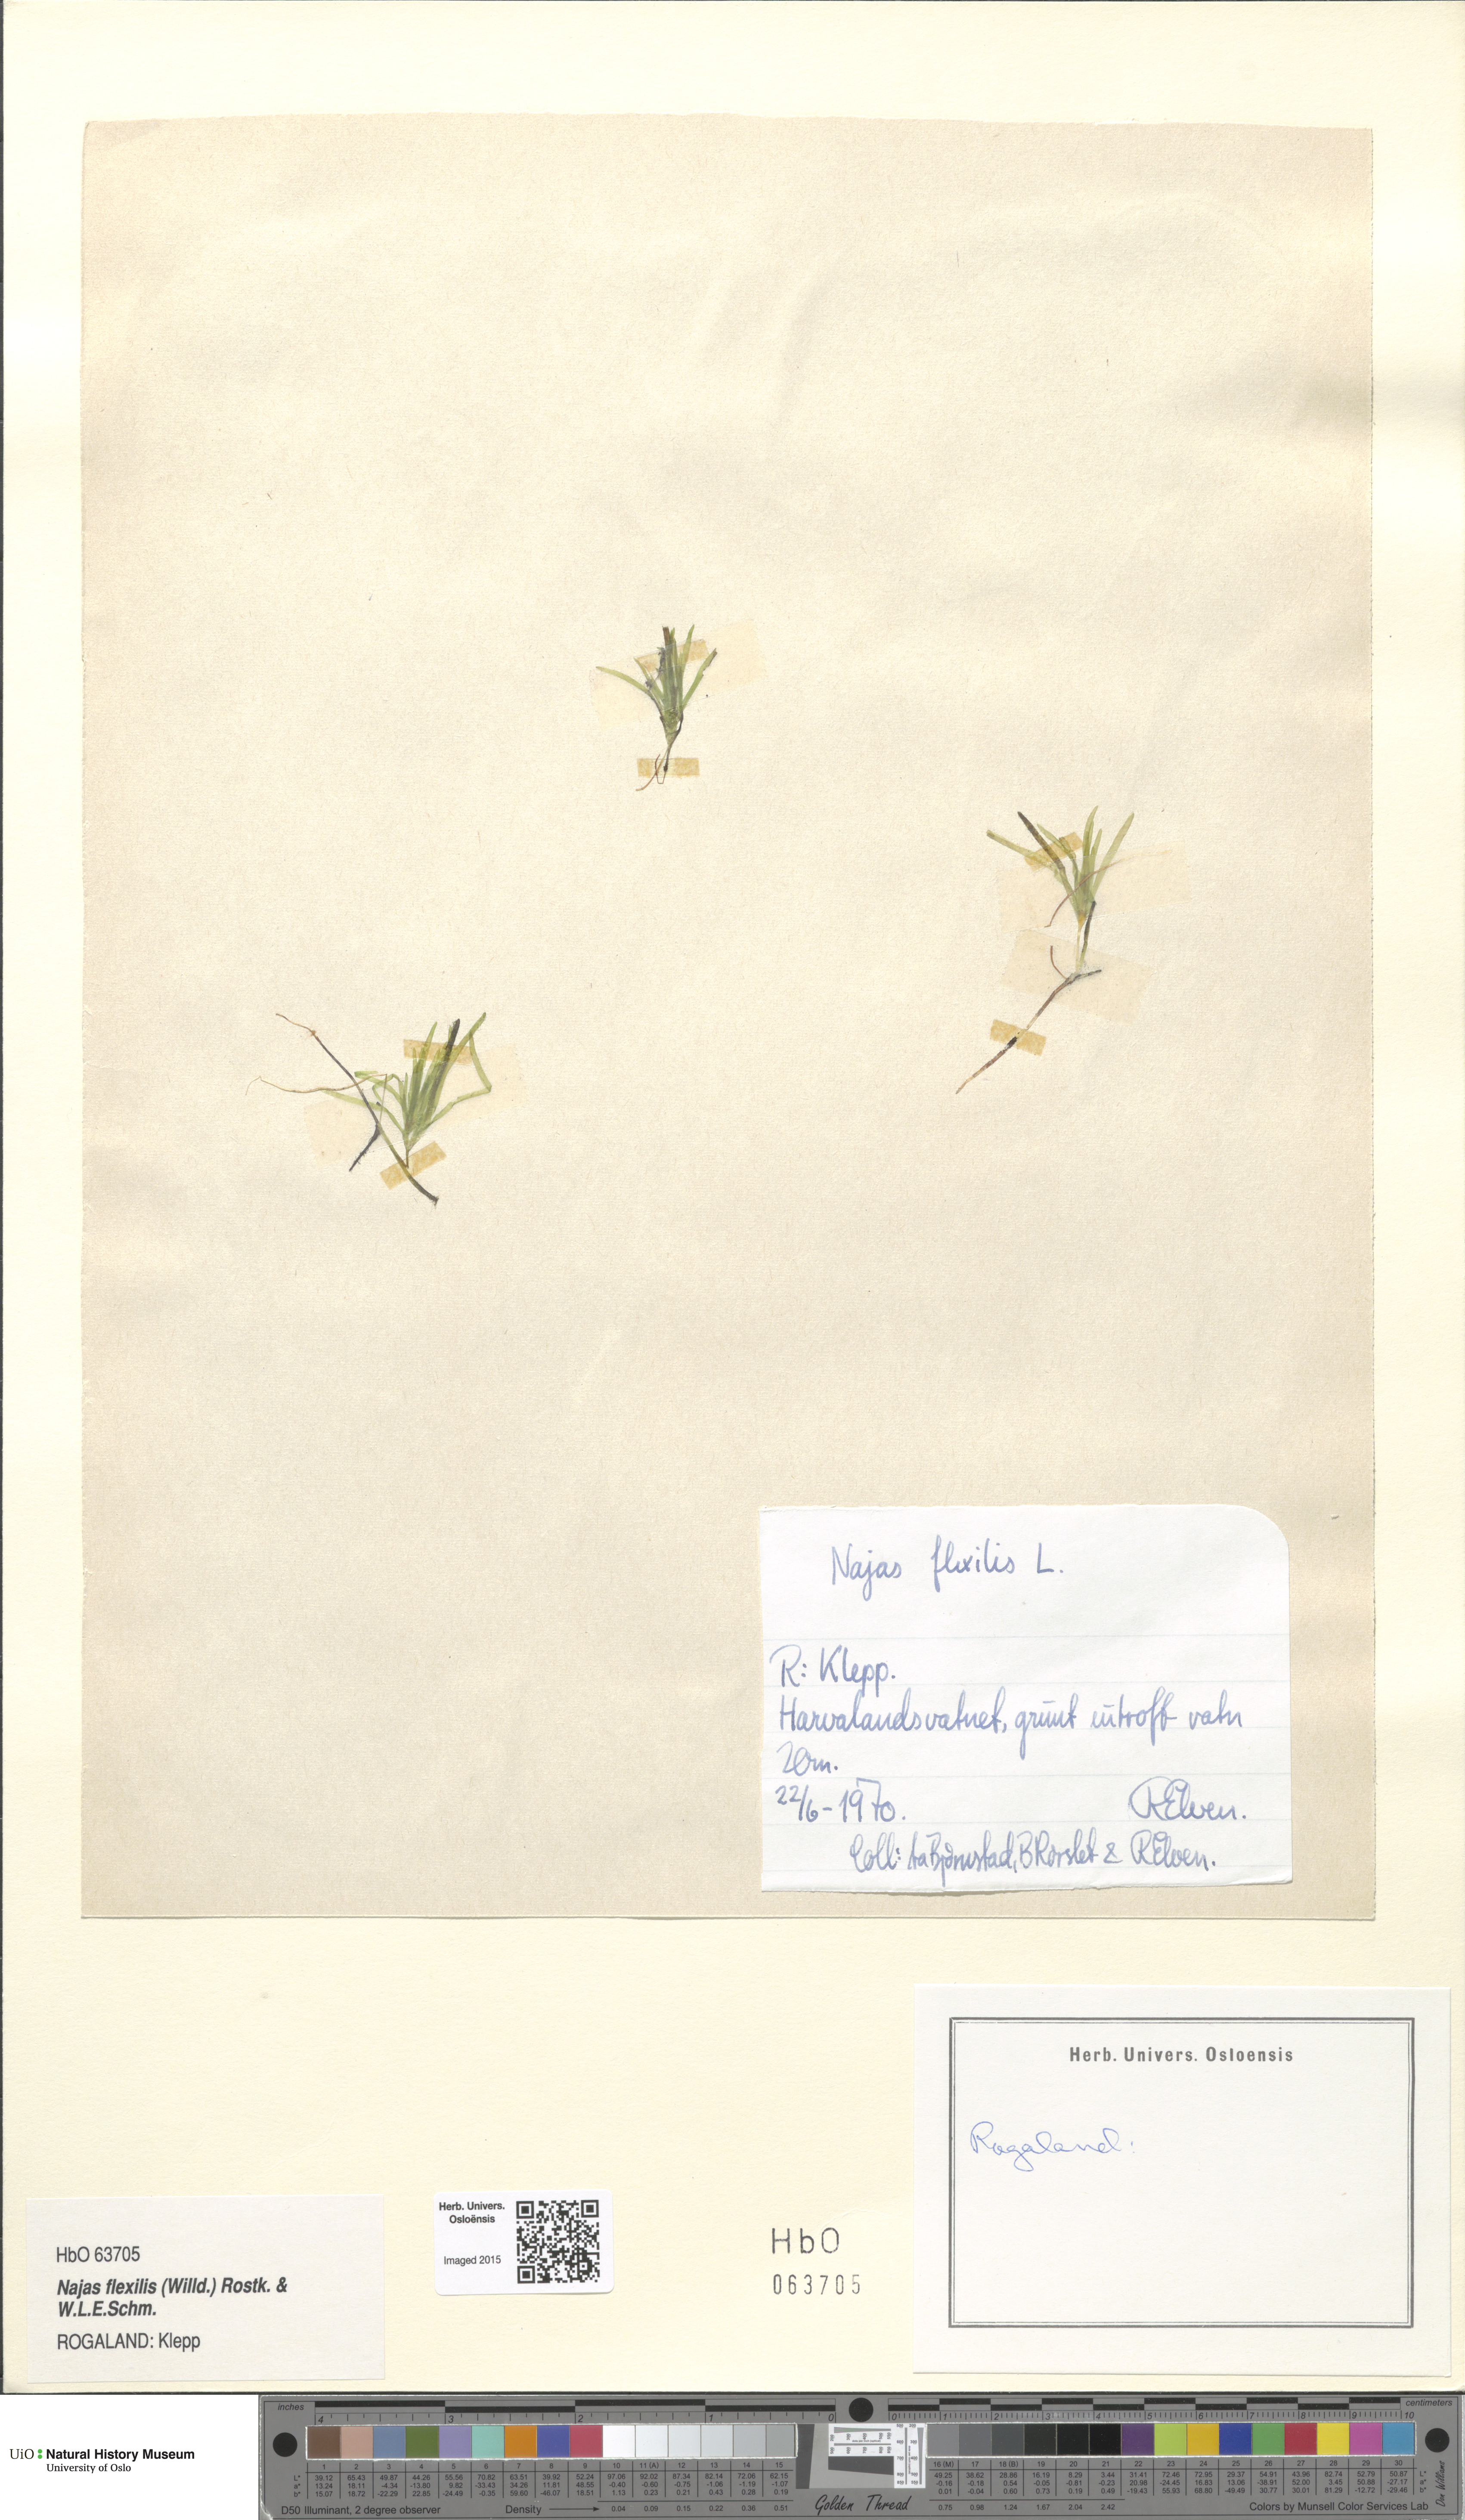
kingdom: Plantae
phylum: Tracheophyta
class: Liliopsida
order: Alismatales
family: Hydrocharitaceae
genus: Najas
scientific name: Najas flexilis
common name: Slender naiad
